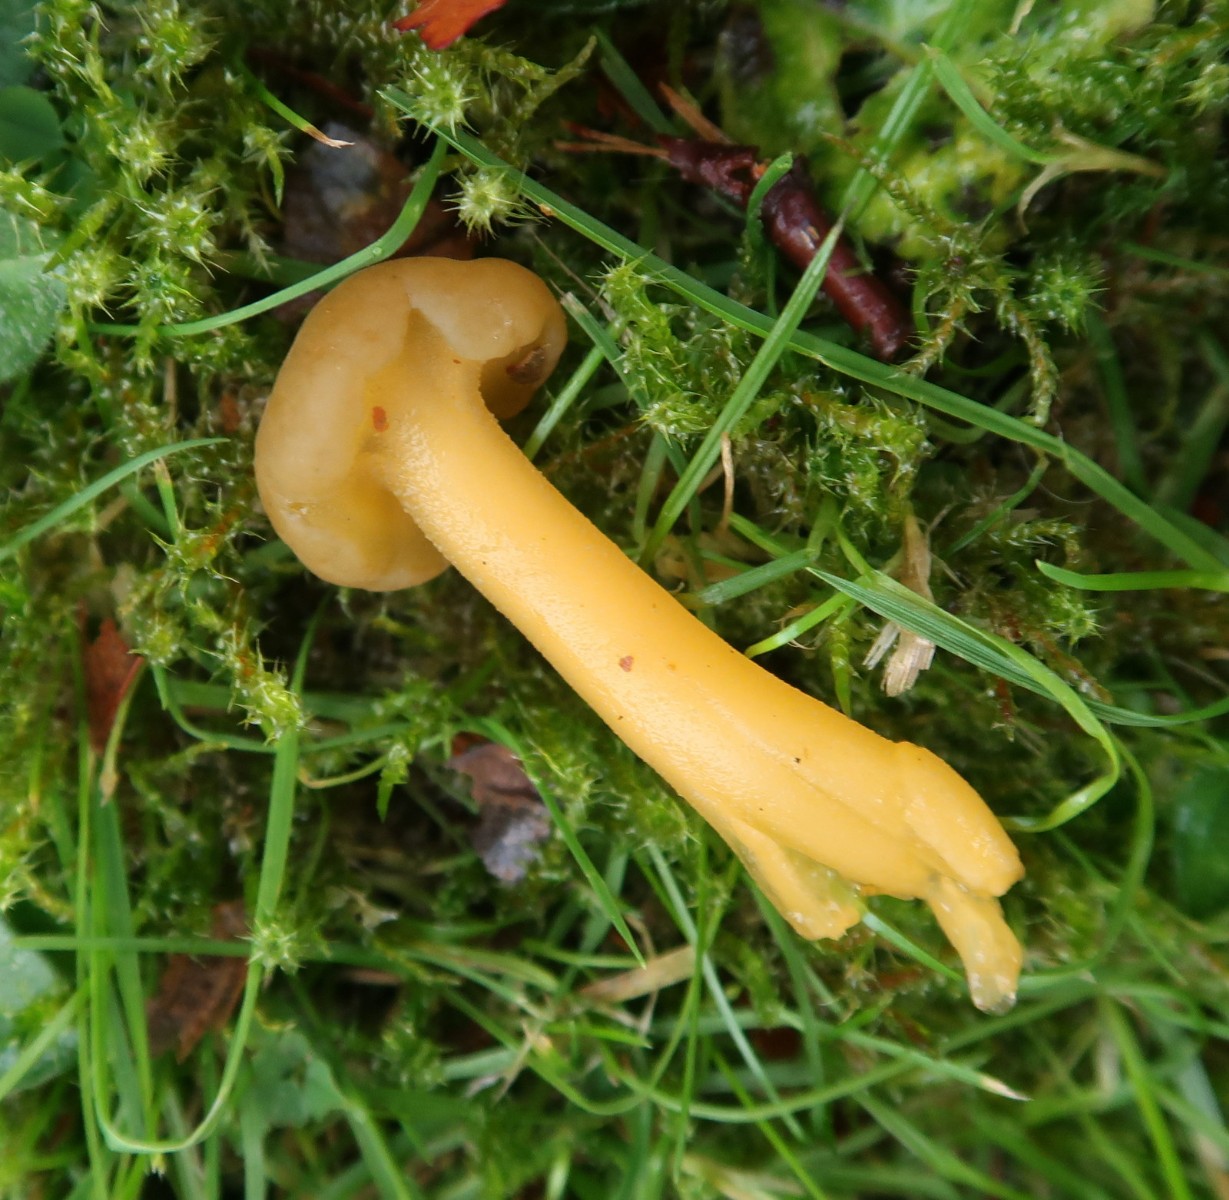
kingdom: Fungi
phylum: Ascomycota
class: Leotiomycetes
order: Leotiales
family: Leotiaceae
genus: Leotia
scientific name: Leotia lubrica
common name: ravsvamp
